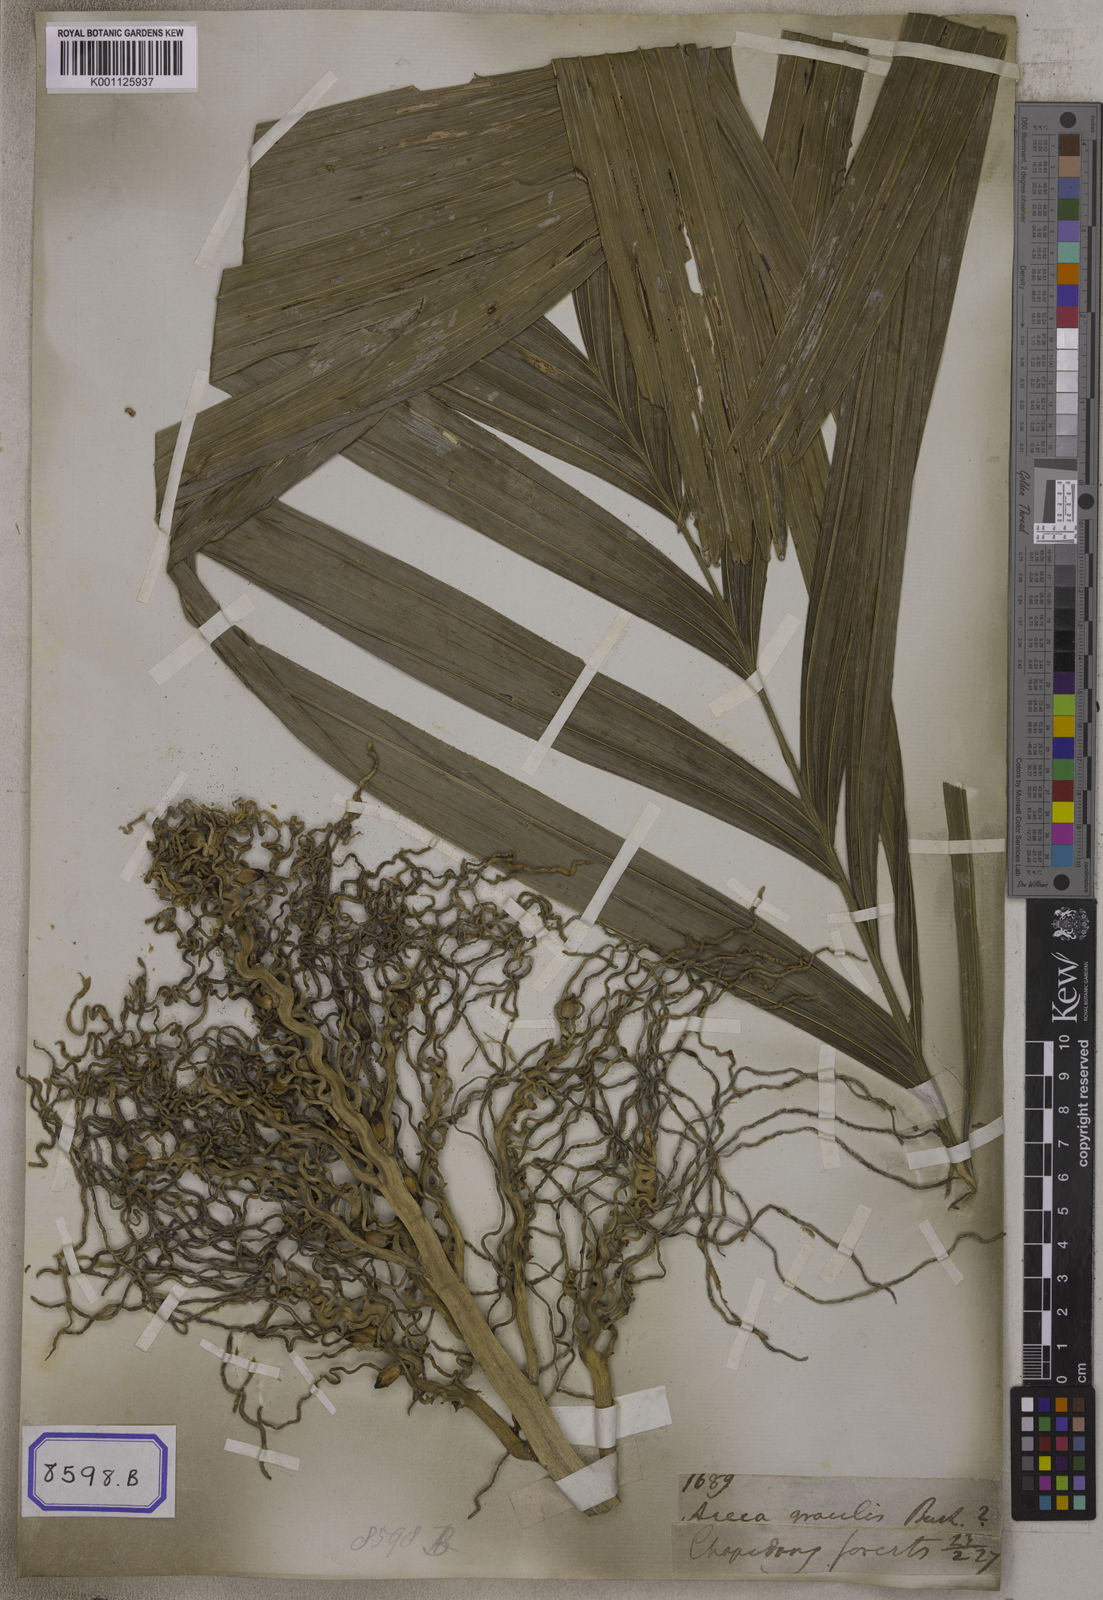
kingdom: Plantae
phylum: Tracheophyta
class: Liliopsida
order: Arecales
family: Arecaceae
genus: Pinanga
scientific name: Pinanga gracilis
